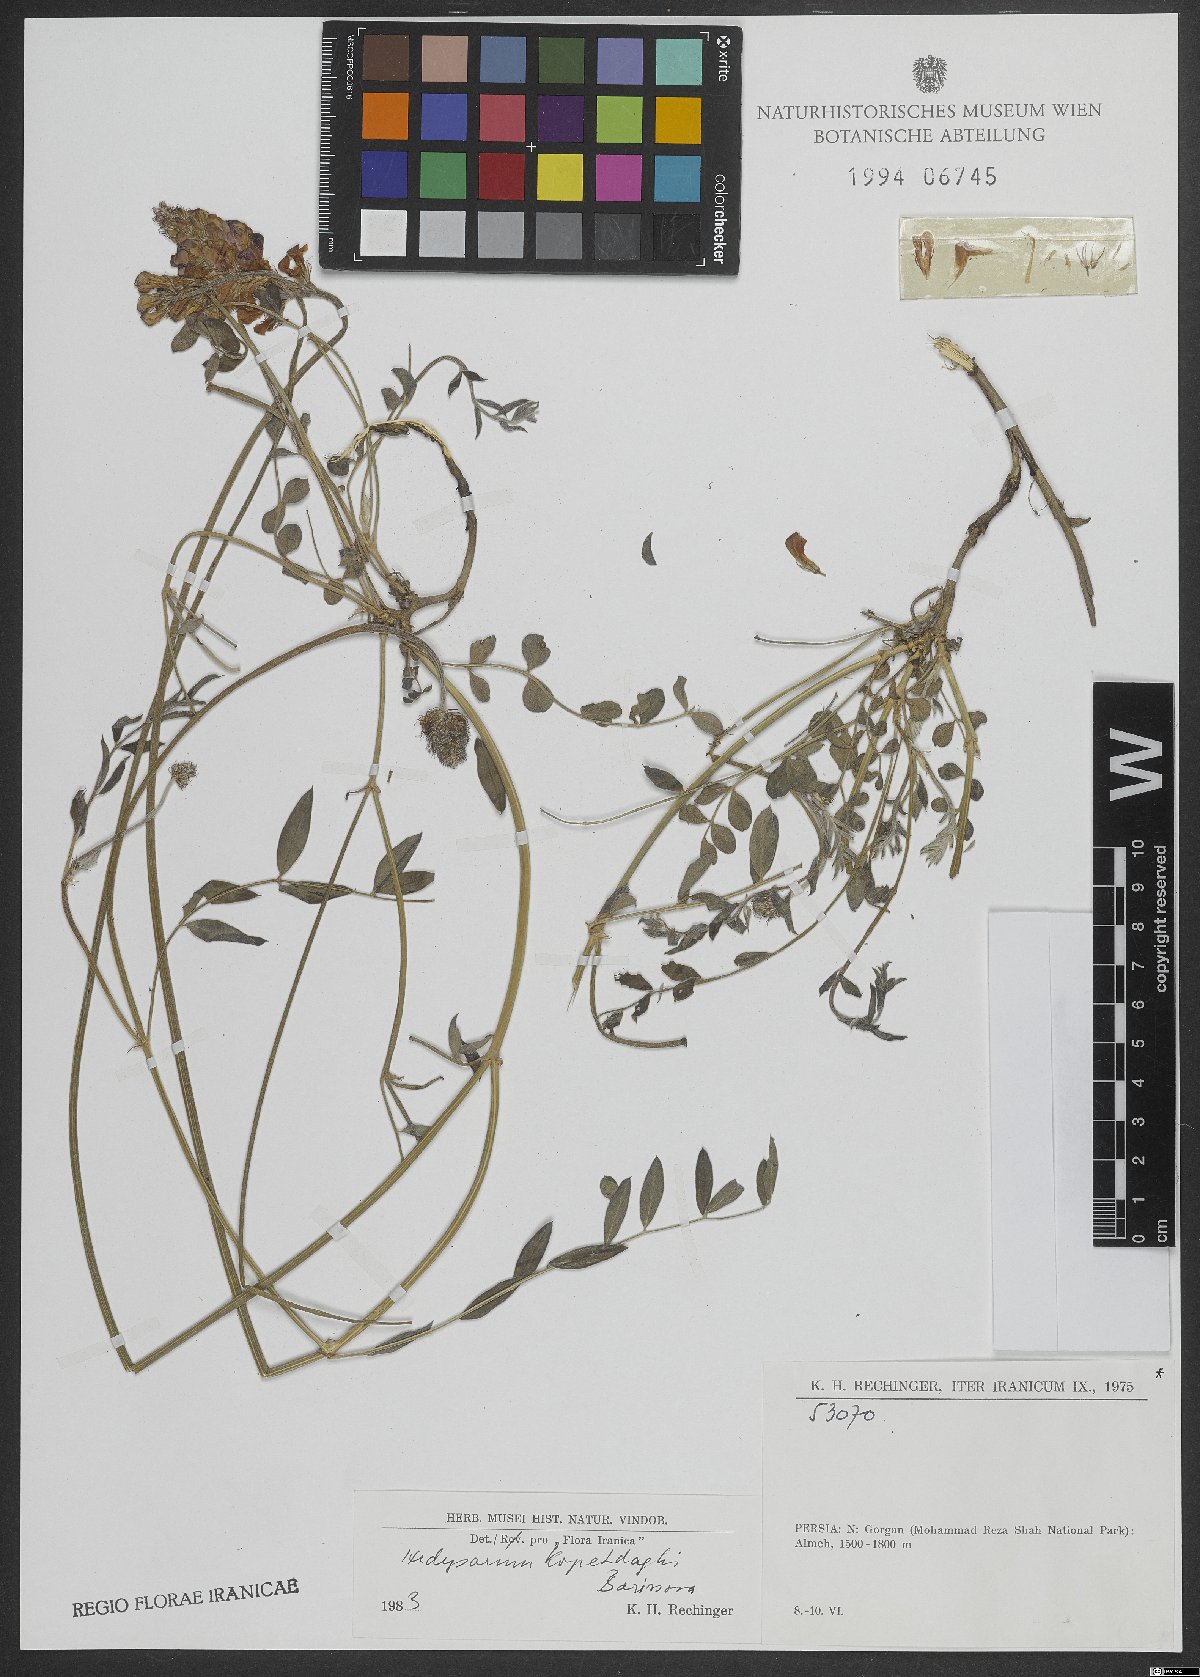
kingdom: Plantae
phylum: Tracheophyta
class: Magnoliopsida
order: Fabales
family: Fabaceae
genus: Hedysarum
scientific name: Hedysarum kopetdaghi
